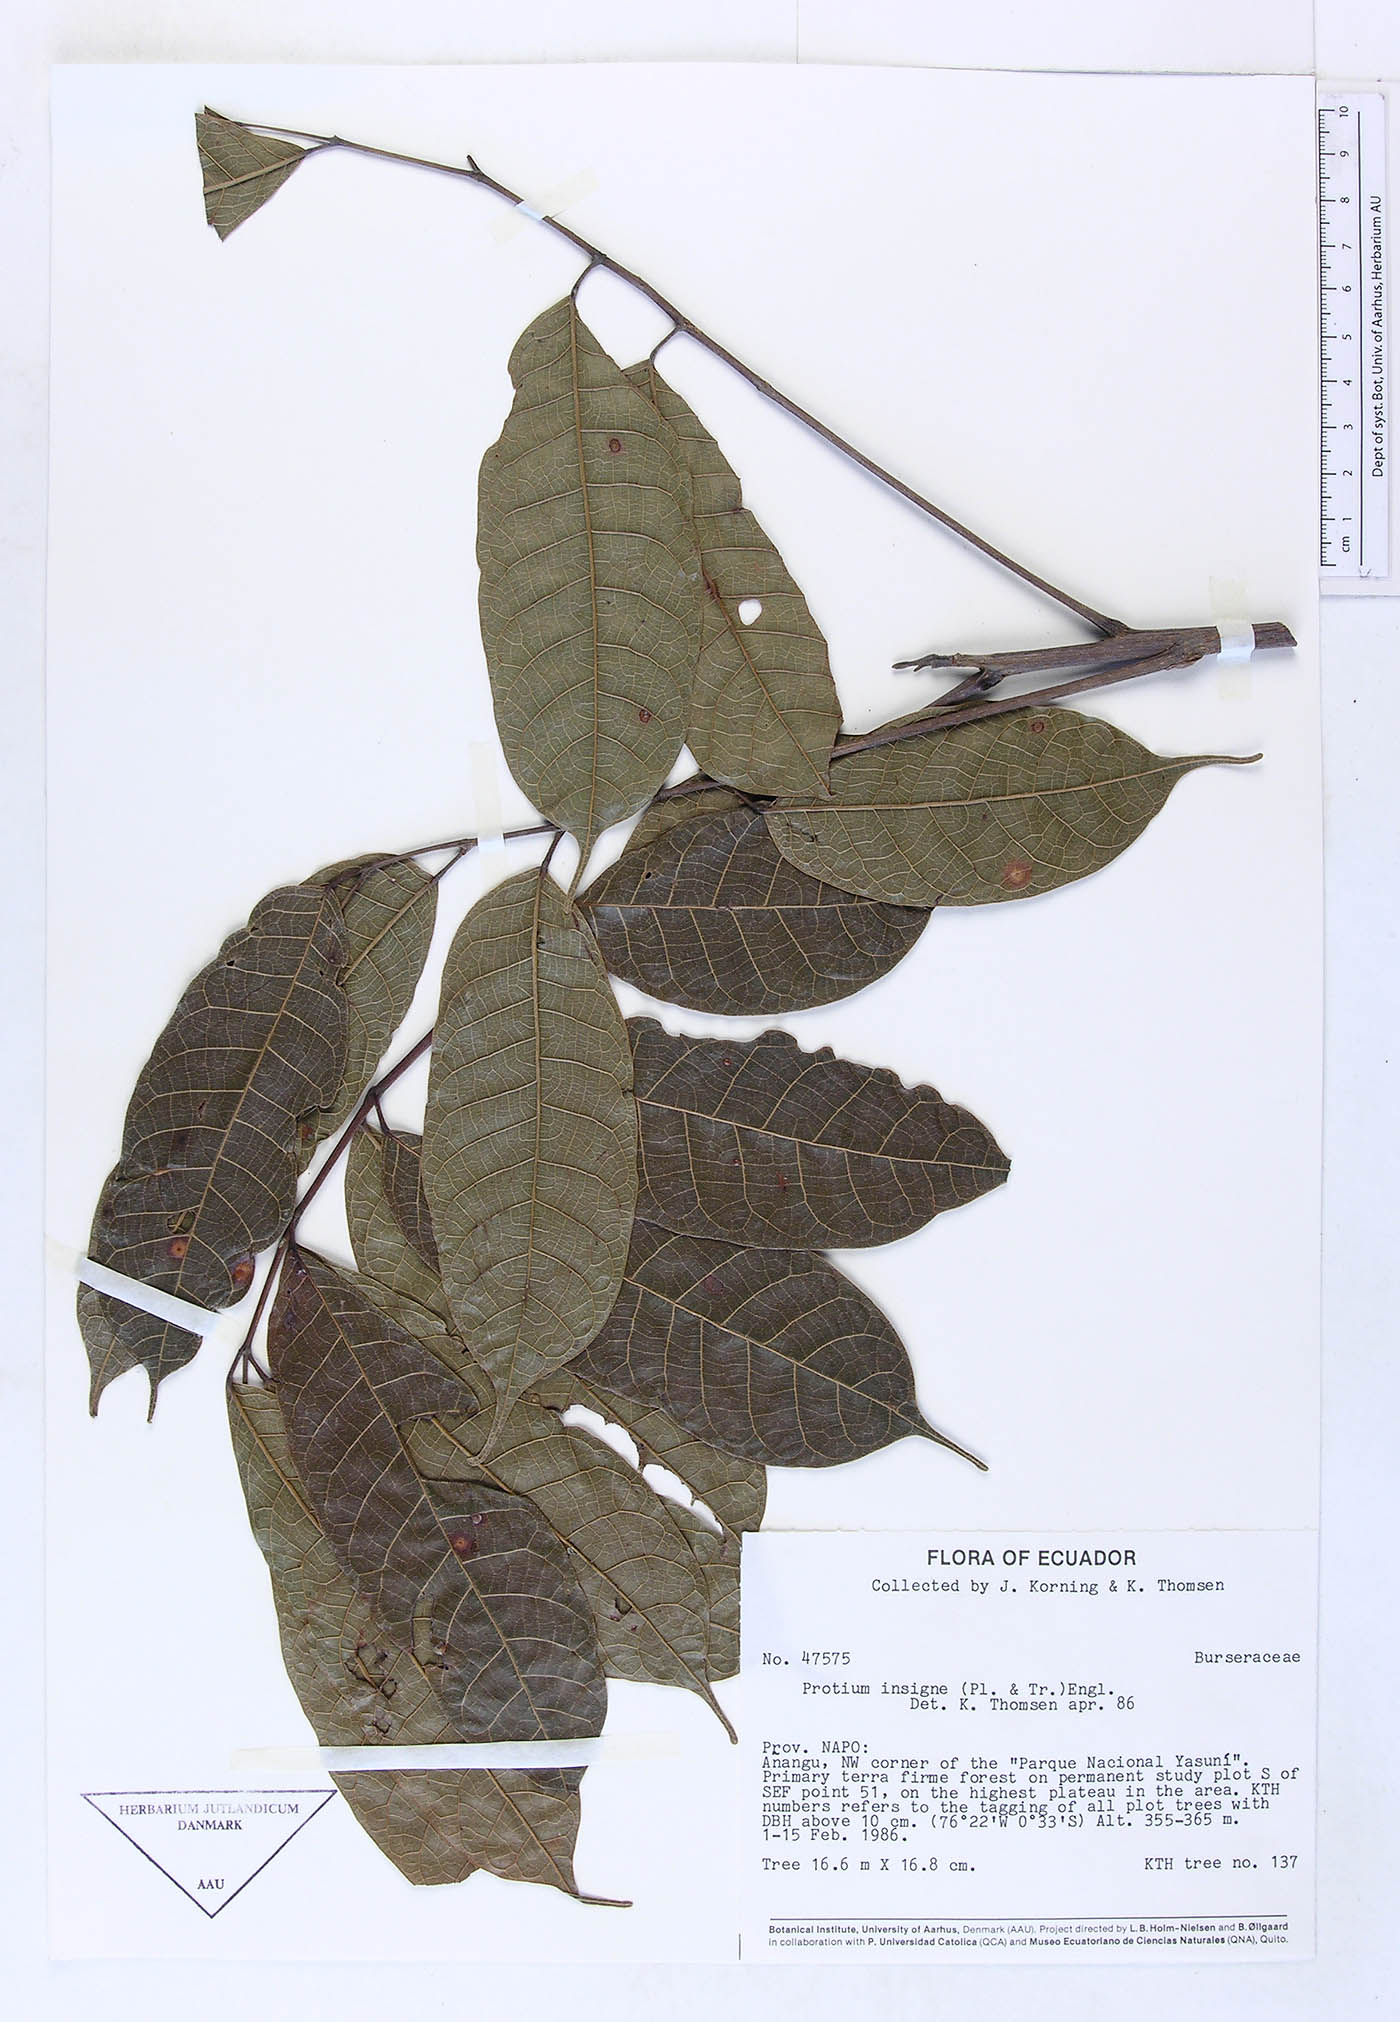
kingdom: Plantae
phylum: Tracheophyta
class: Magnoliopsida
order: Sapindales
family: Burseraceae
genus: Protium
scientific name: Protium sagotianum
